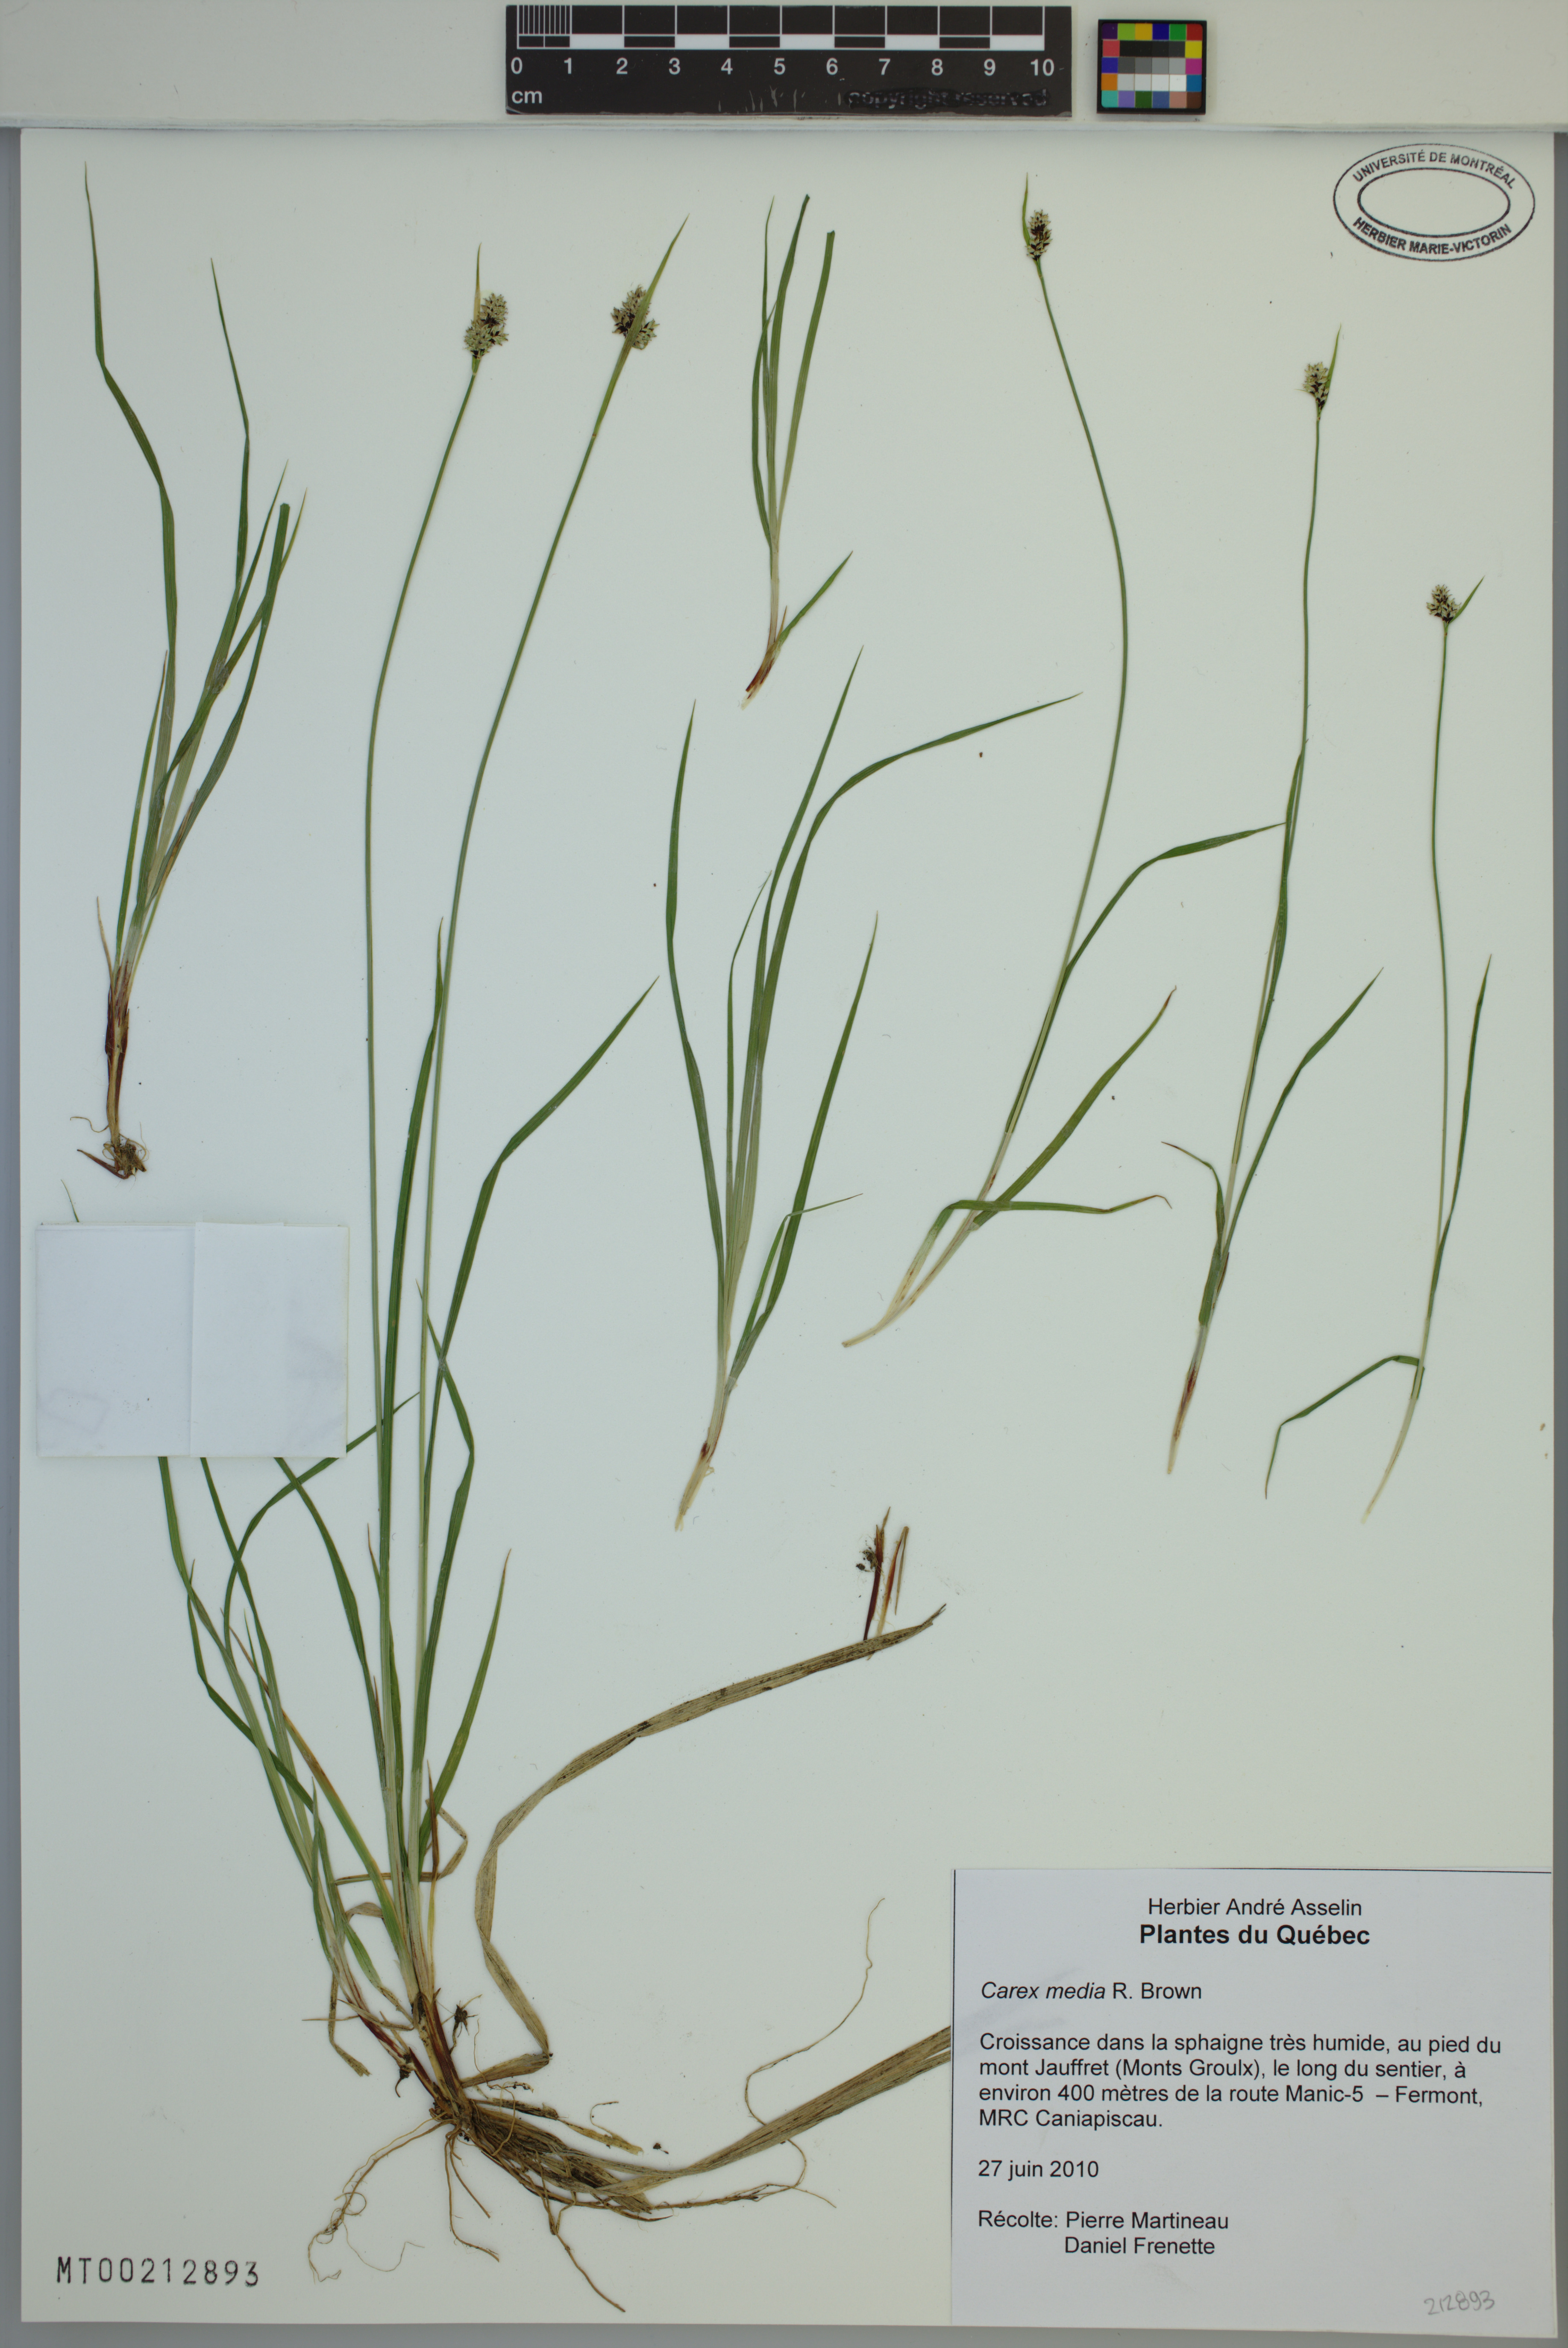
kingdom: Plantae
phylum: Tracheophyta
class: Liliopsida
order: Poales
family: Cyperaceae
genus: Carex
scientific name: Carex media
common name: Alpine sedge
